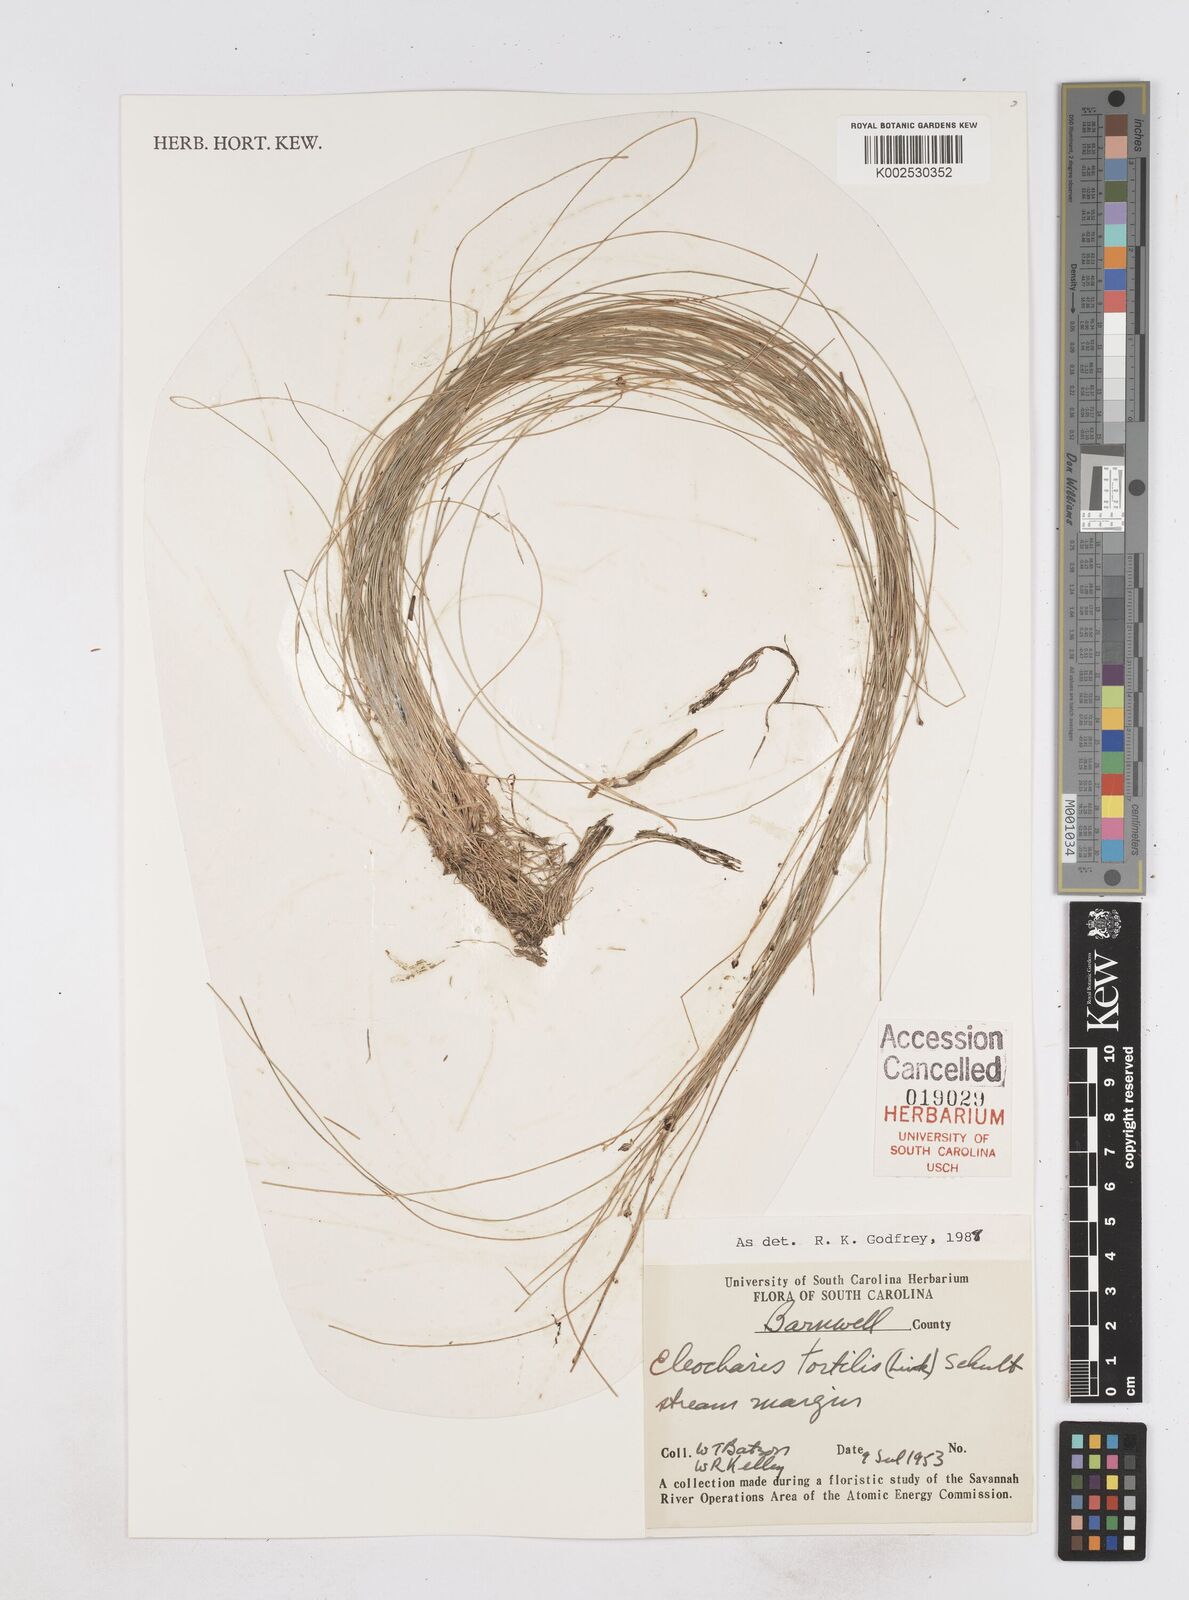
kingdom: Plantae
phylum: Tracheophyta
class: Liliopsida
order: Poales
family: Cyperaceae
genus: Eleocharis
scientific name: Eleocharis tortilis
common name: Twisted spike sedge
